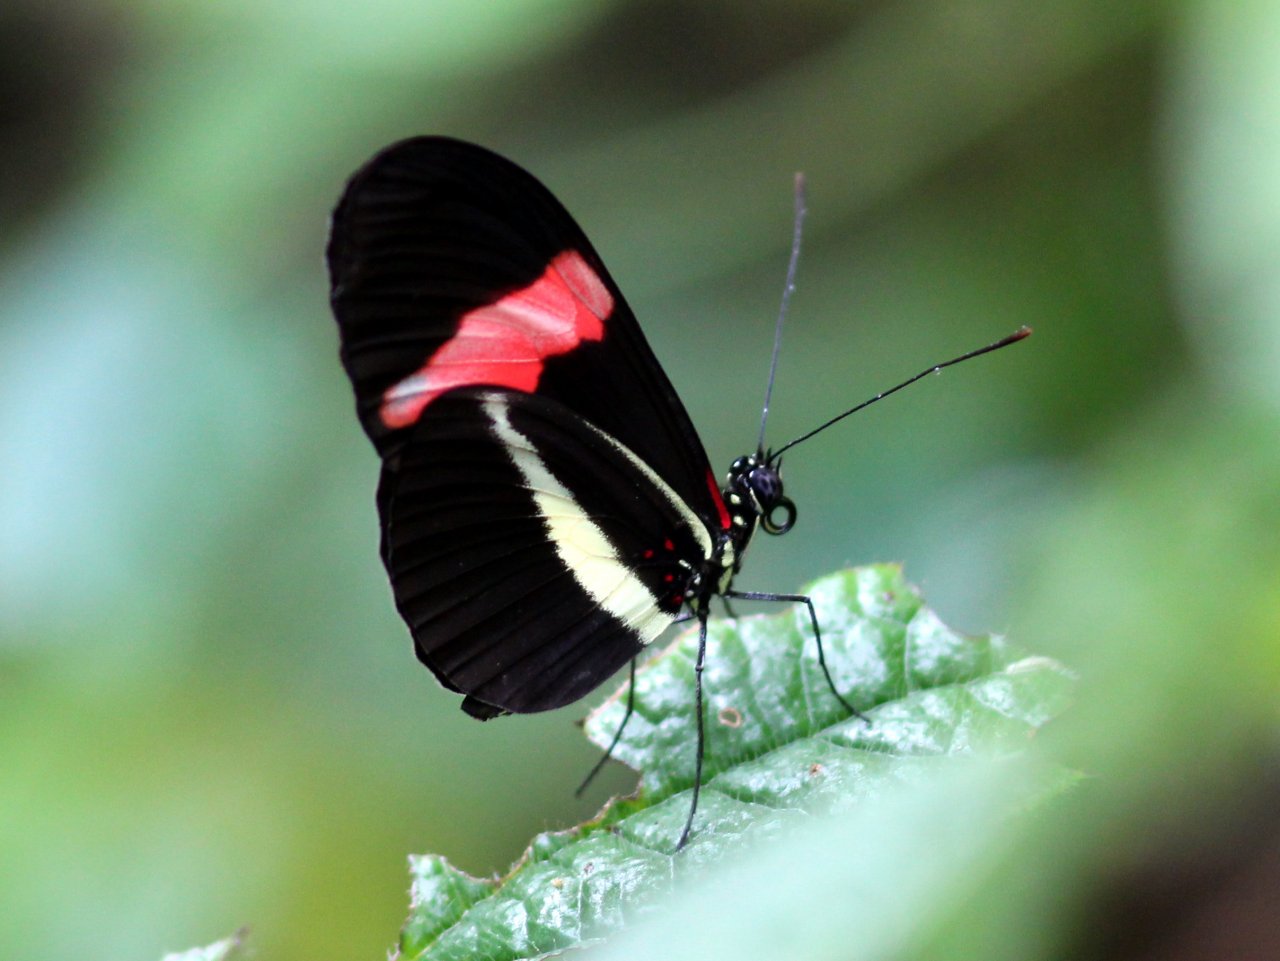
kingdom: Animalia
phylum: Arthropoda
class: Insecta
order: Lepidoptera
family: Nymphalidae
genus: Heliconius
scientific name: Heliconius erato
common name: Erato Heliconian
